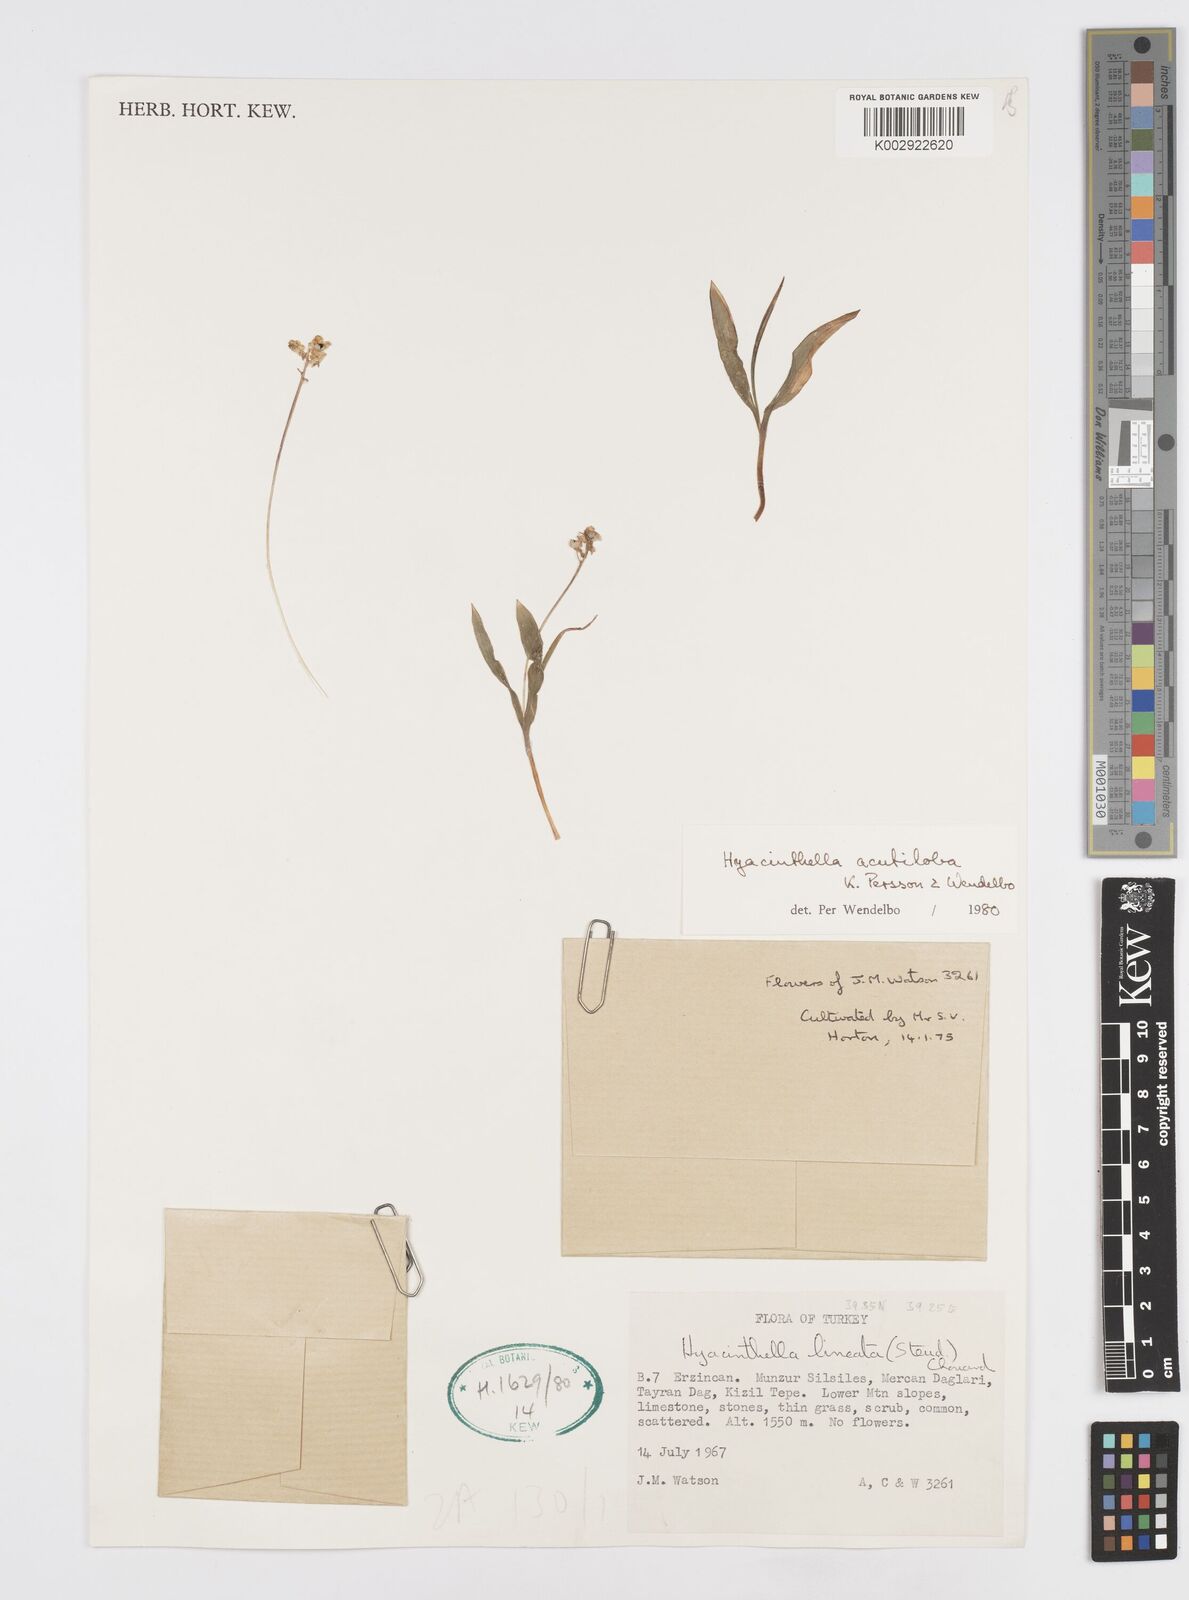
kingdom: Plantae
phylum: Tracheophyta
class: Liliopsida
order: Asparagales
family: Asparagaceae
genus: Hyacinthella
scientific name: Hyacinthella acutiloba
